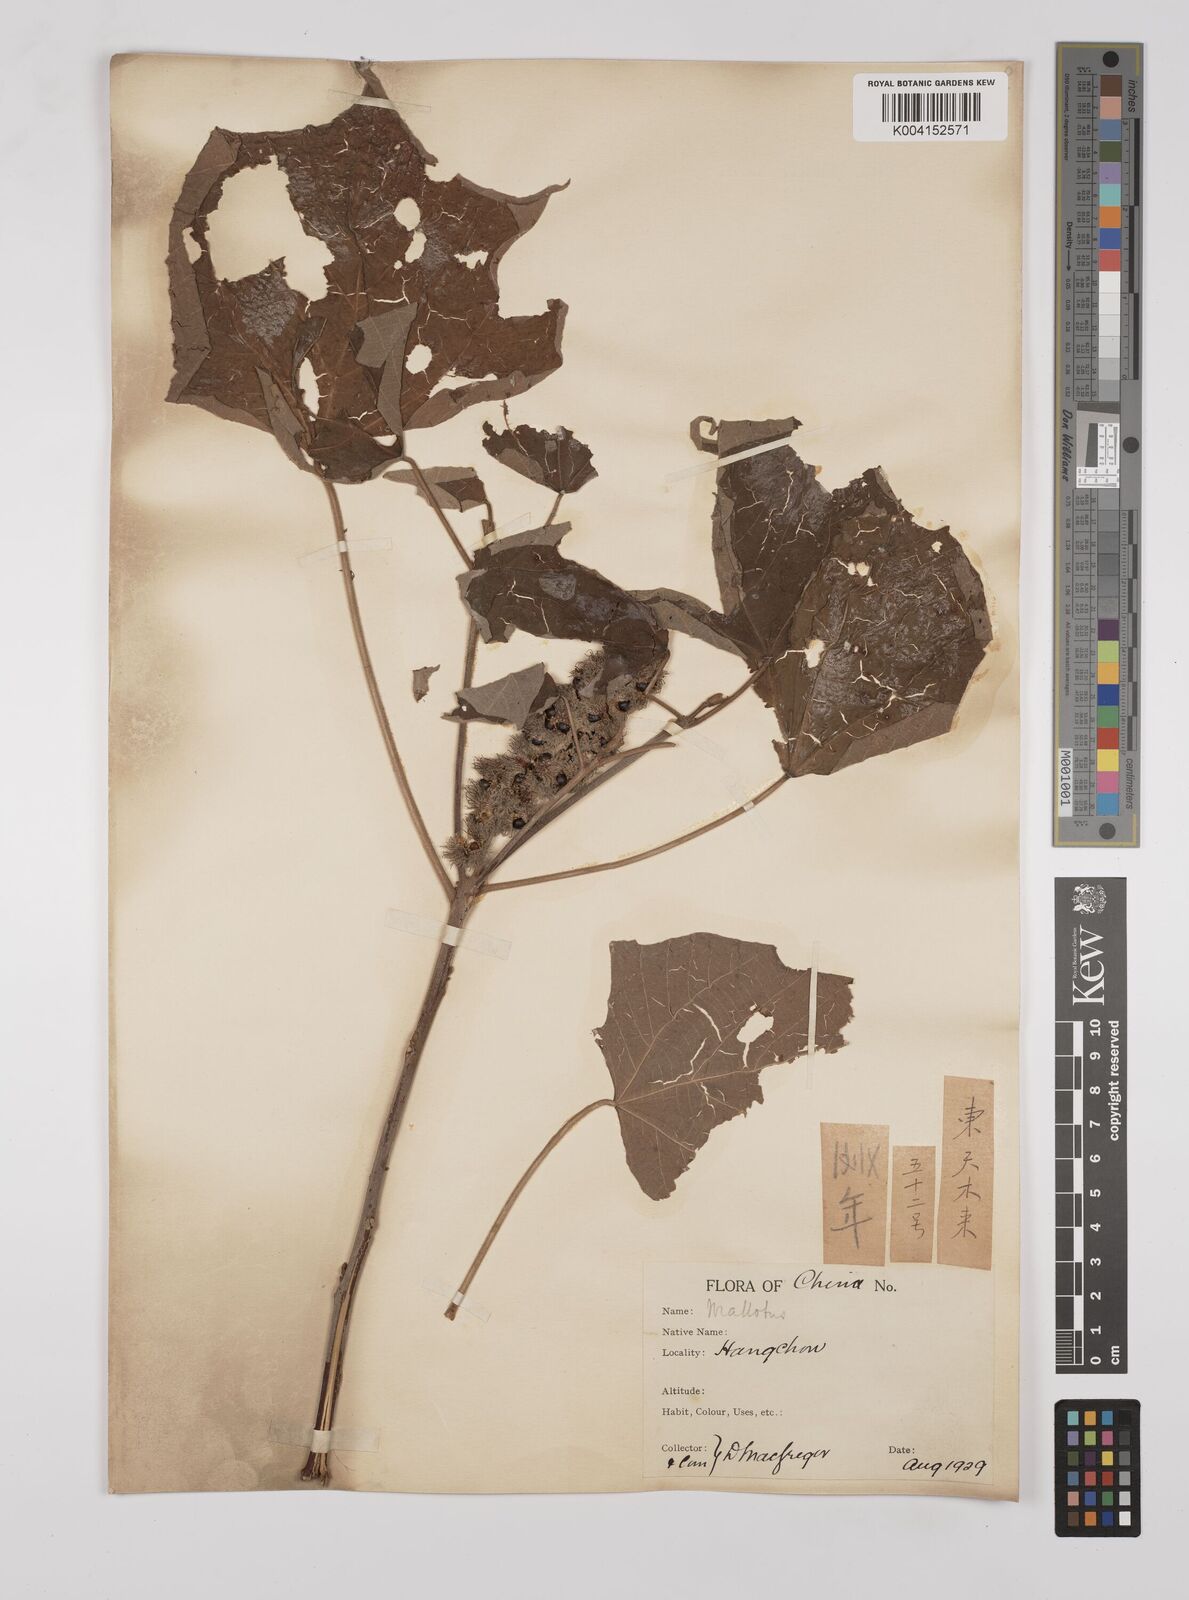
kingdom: Plantae
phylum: Tracheophyta
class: Magnoliopsida
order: Malpighiales
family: Euphorbiaceae
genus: Mallotus
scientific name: Mallotus japonicus
